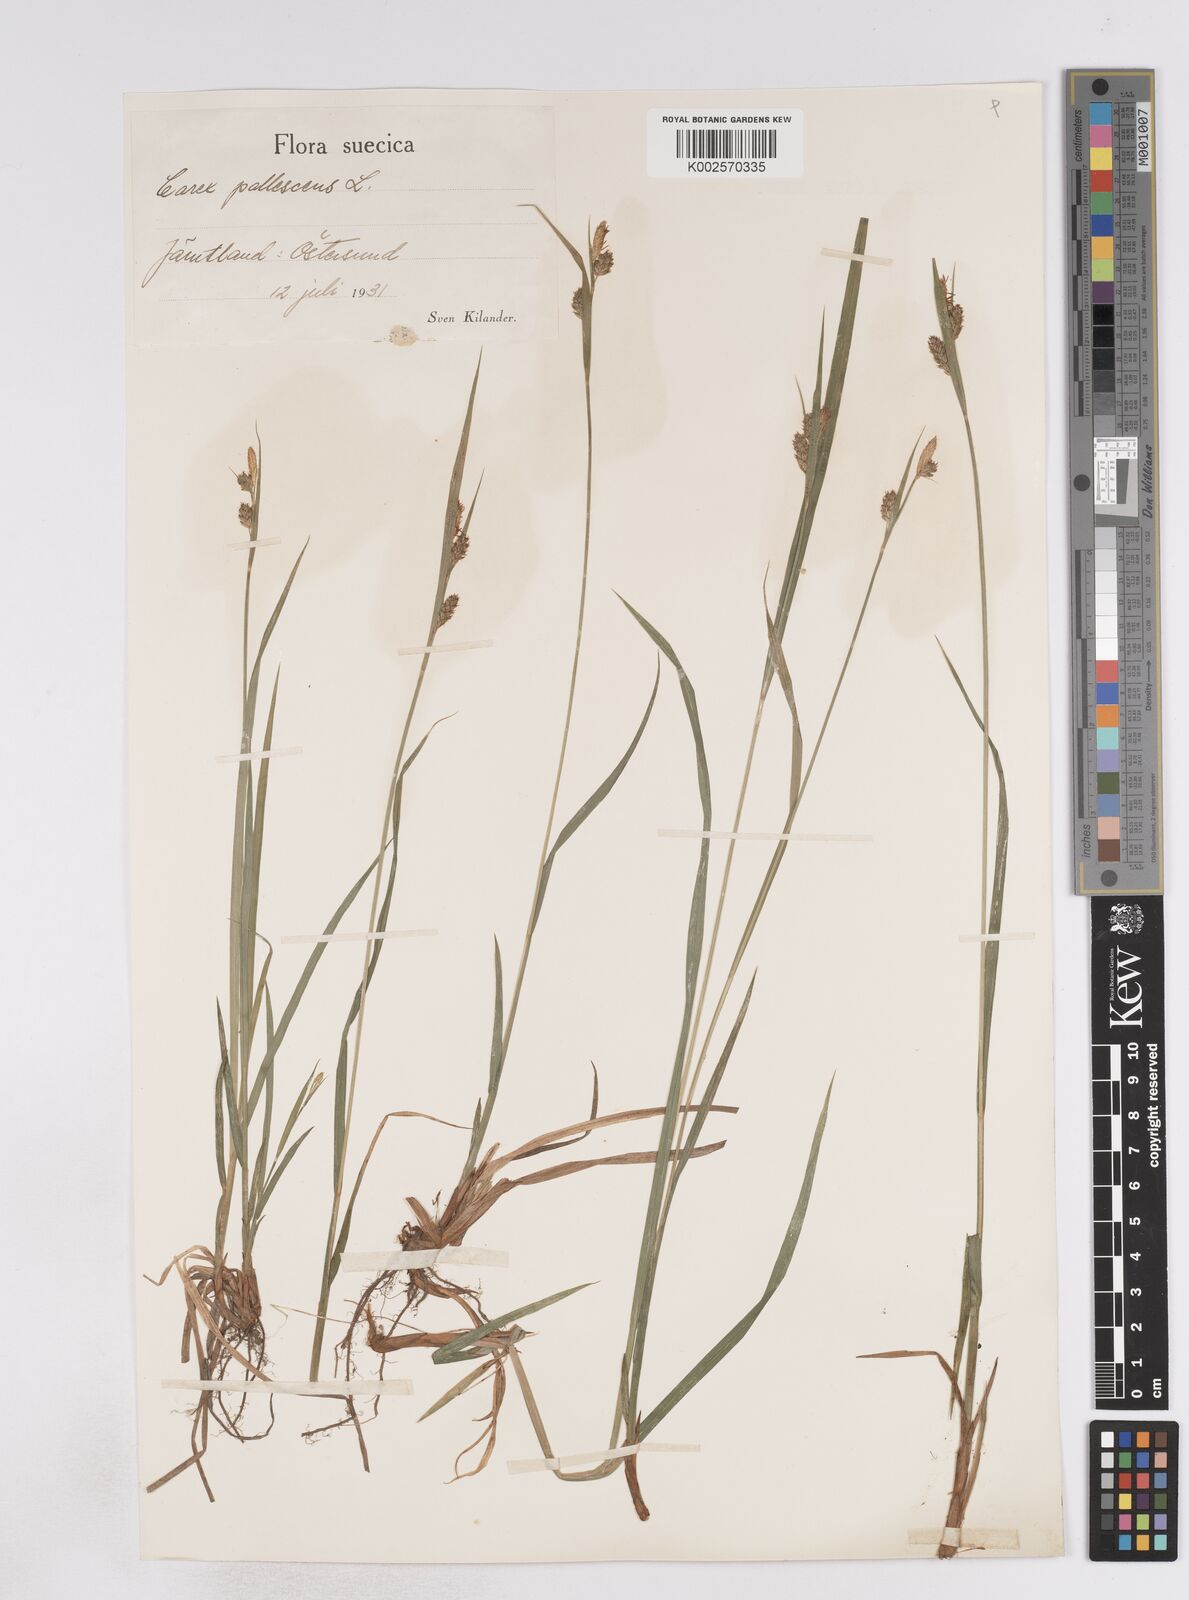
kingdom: Plantae
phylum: Tracheophyta
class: Liliopsida
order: Poales
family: Cyperaceae
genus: Carex
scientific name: Carex pallescens
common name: Pale sedge
